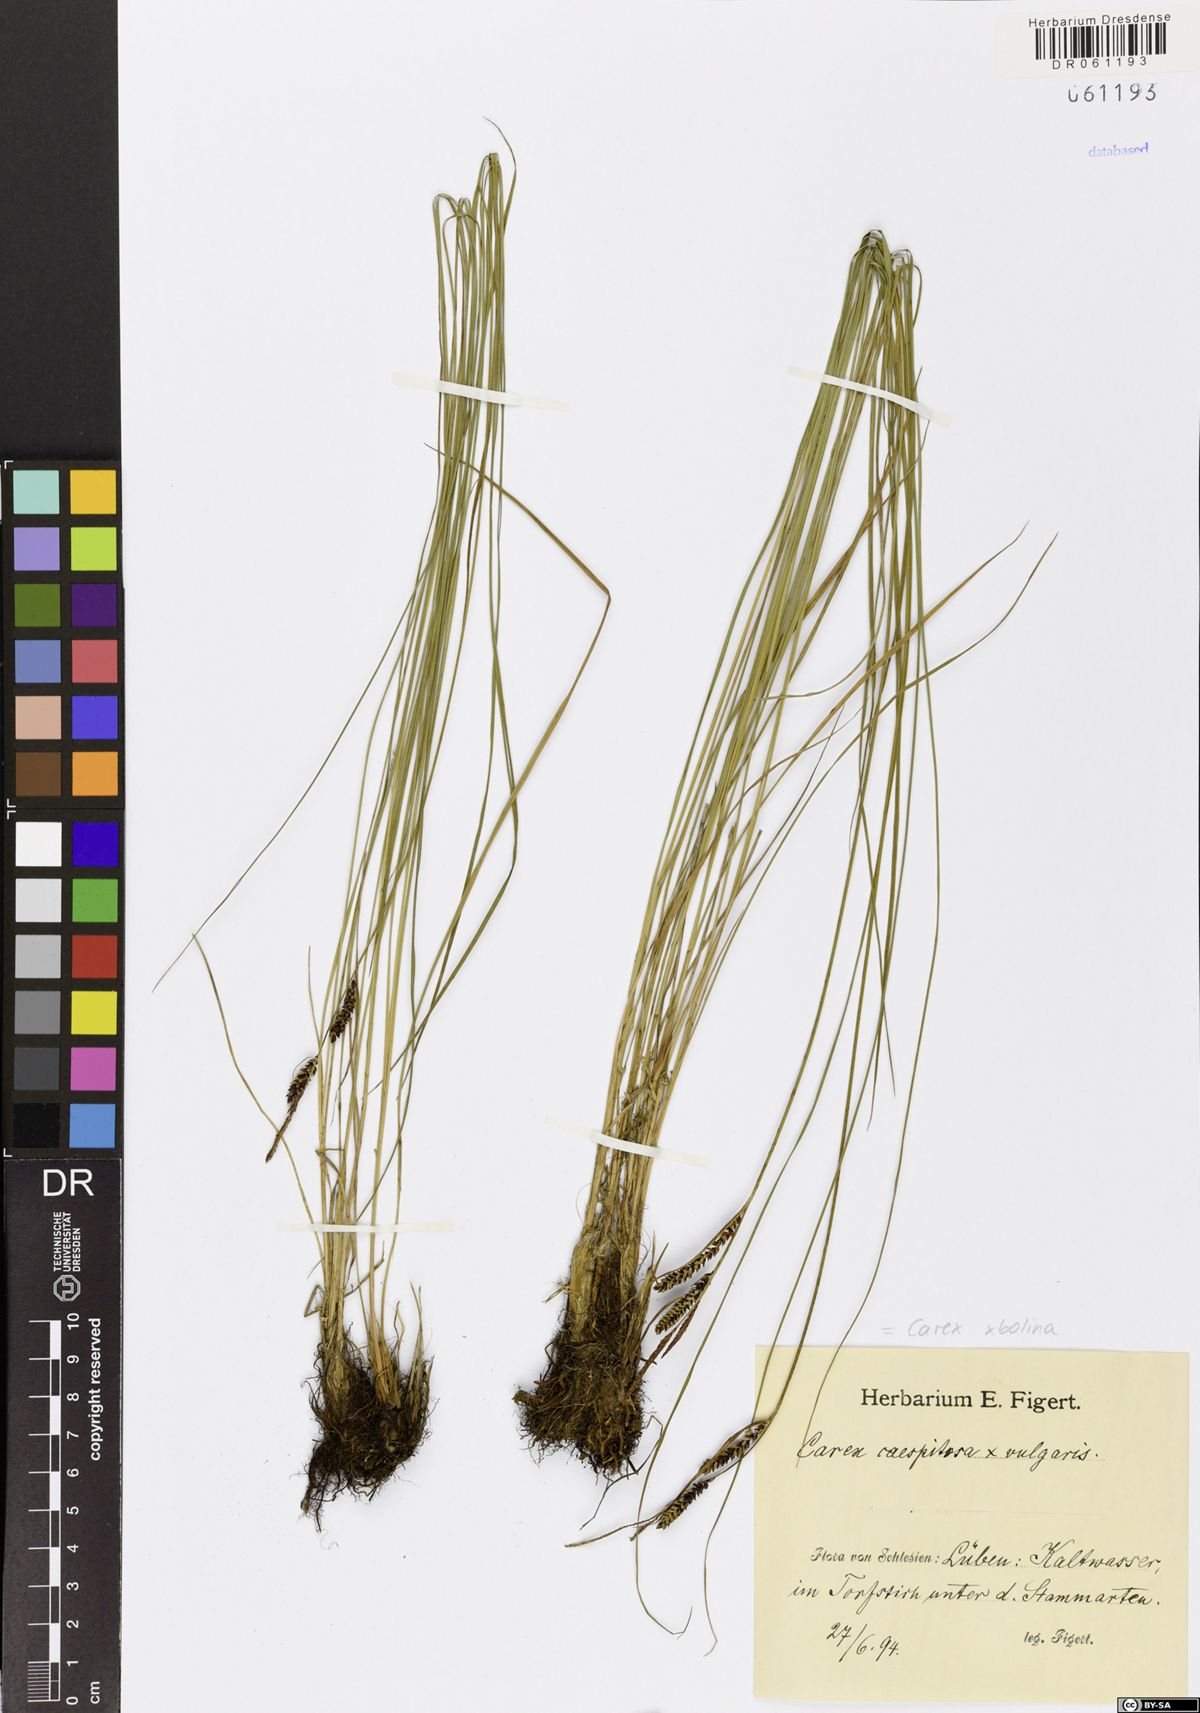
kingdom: Plantae
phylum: Tracheophyta
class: Liliopsida
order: Poales
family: Cyperaceae
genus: Carex
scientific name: Carex bolina
